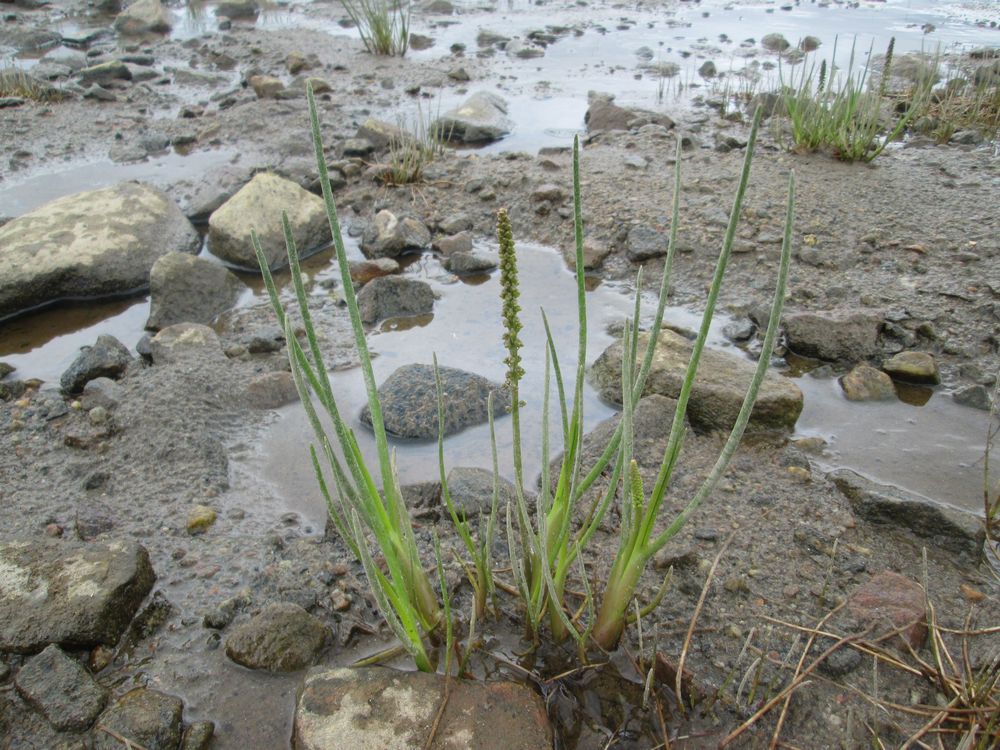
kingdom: Plantae
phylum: Tracheophyta
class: Liliopsida
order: Alismatales
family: Juncaginaceae
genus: Triglochin
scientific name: Triglochin maritima
